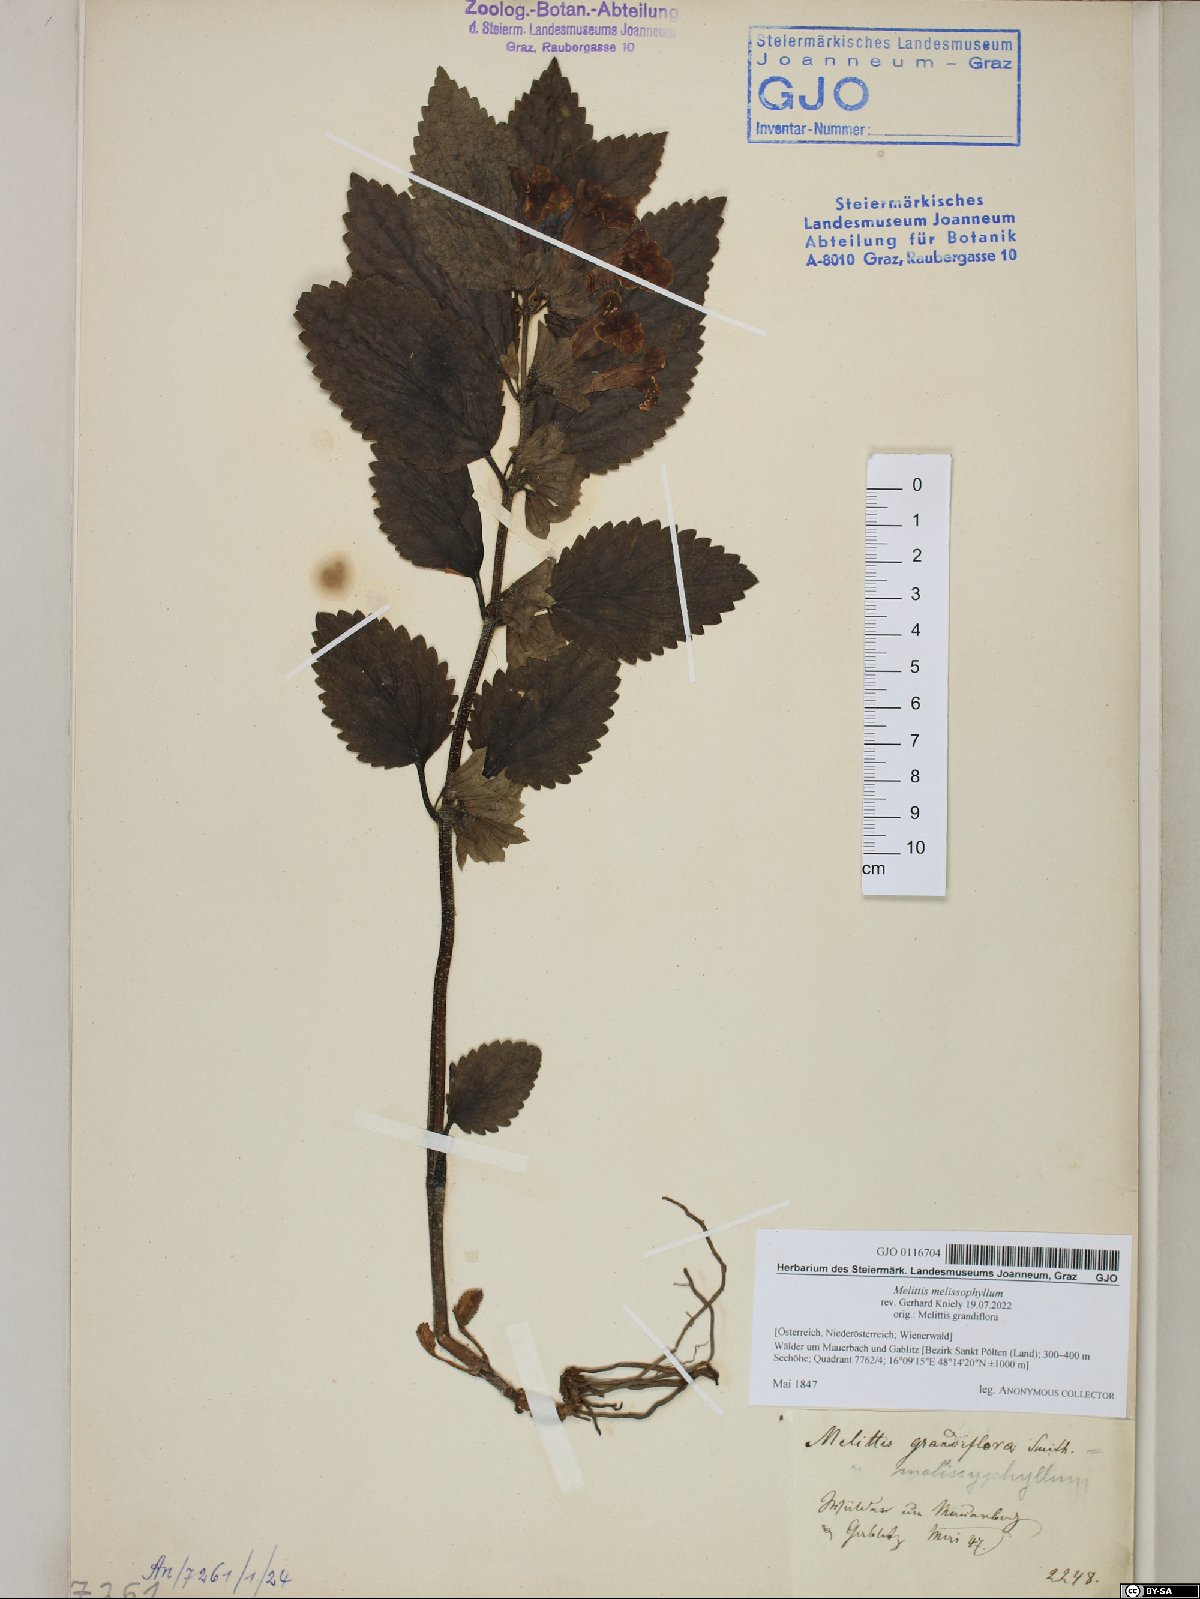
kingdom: Plantae
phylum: Tracheophyta
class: Magnoliopsida
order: Lamiales
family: Lamiaceae
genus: Melittis
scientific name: Melittis melissophyllum
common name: Bastard balm
